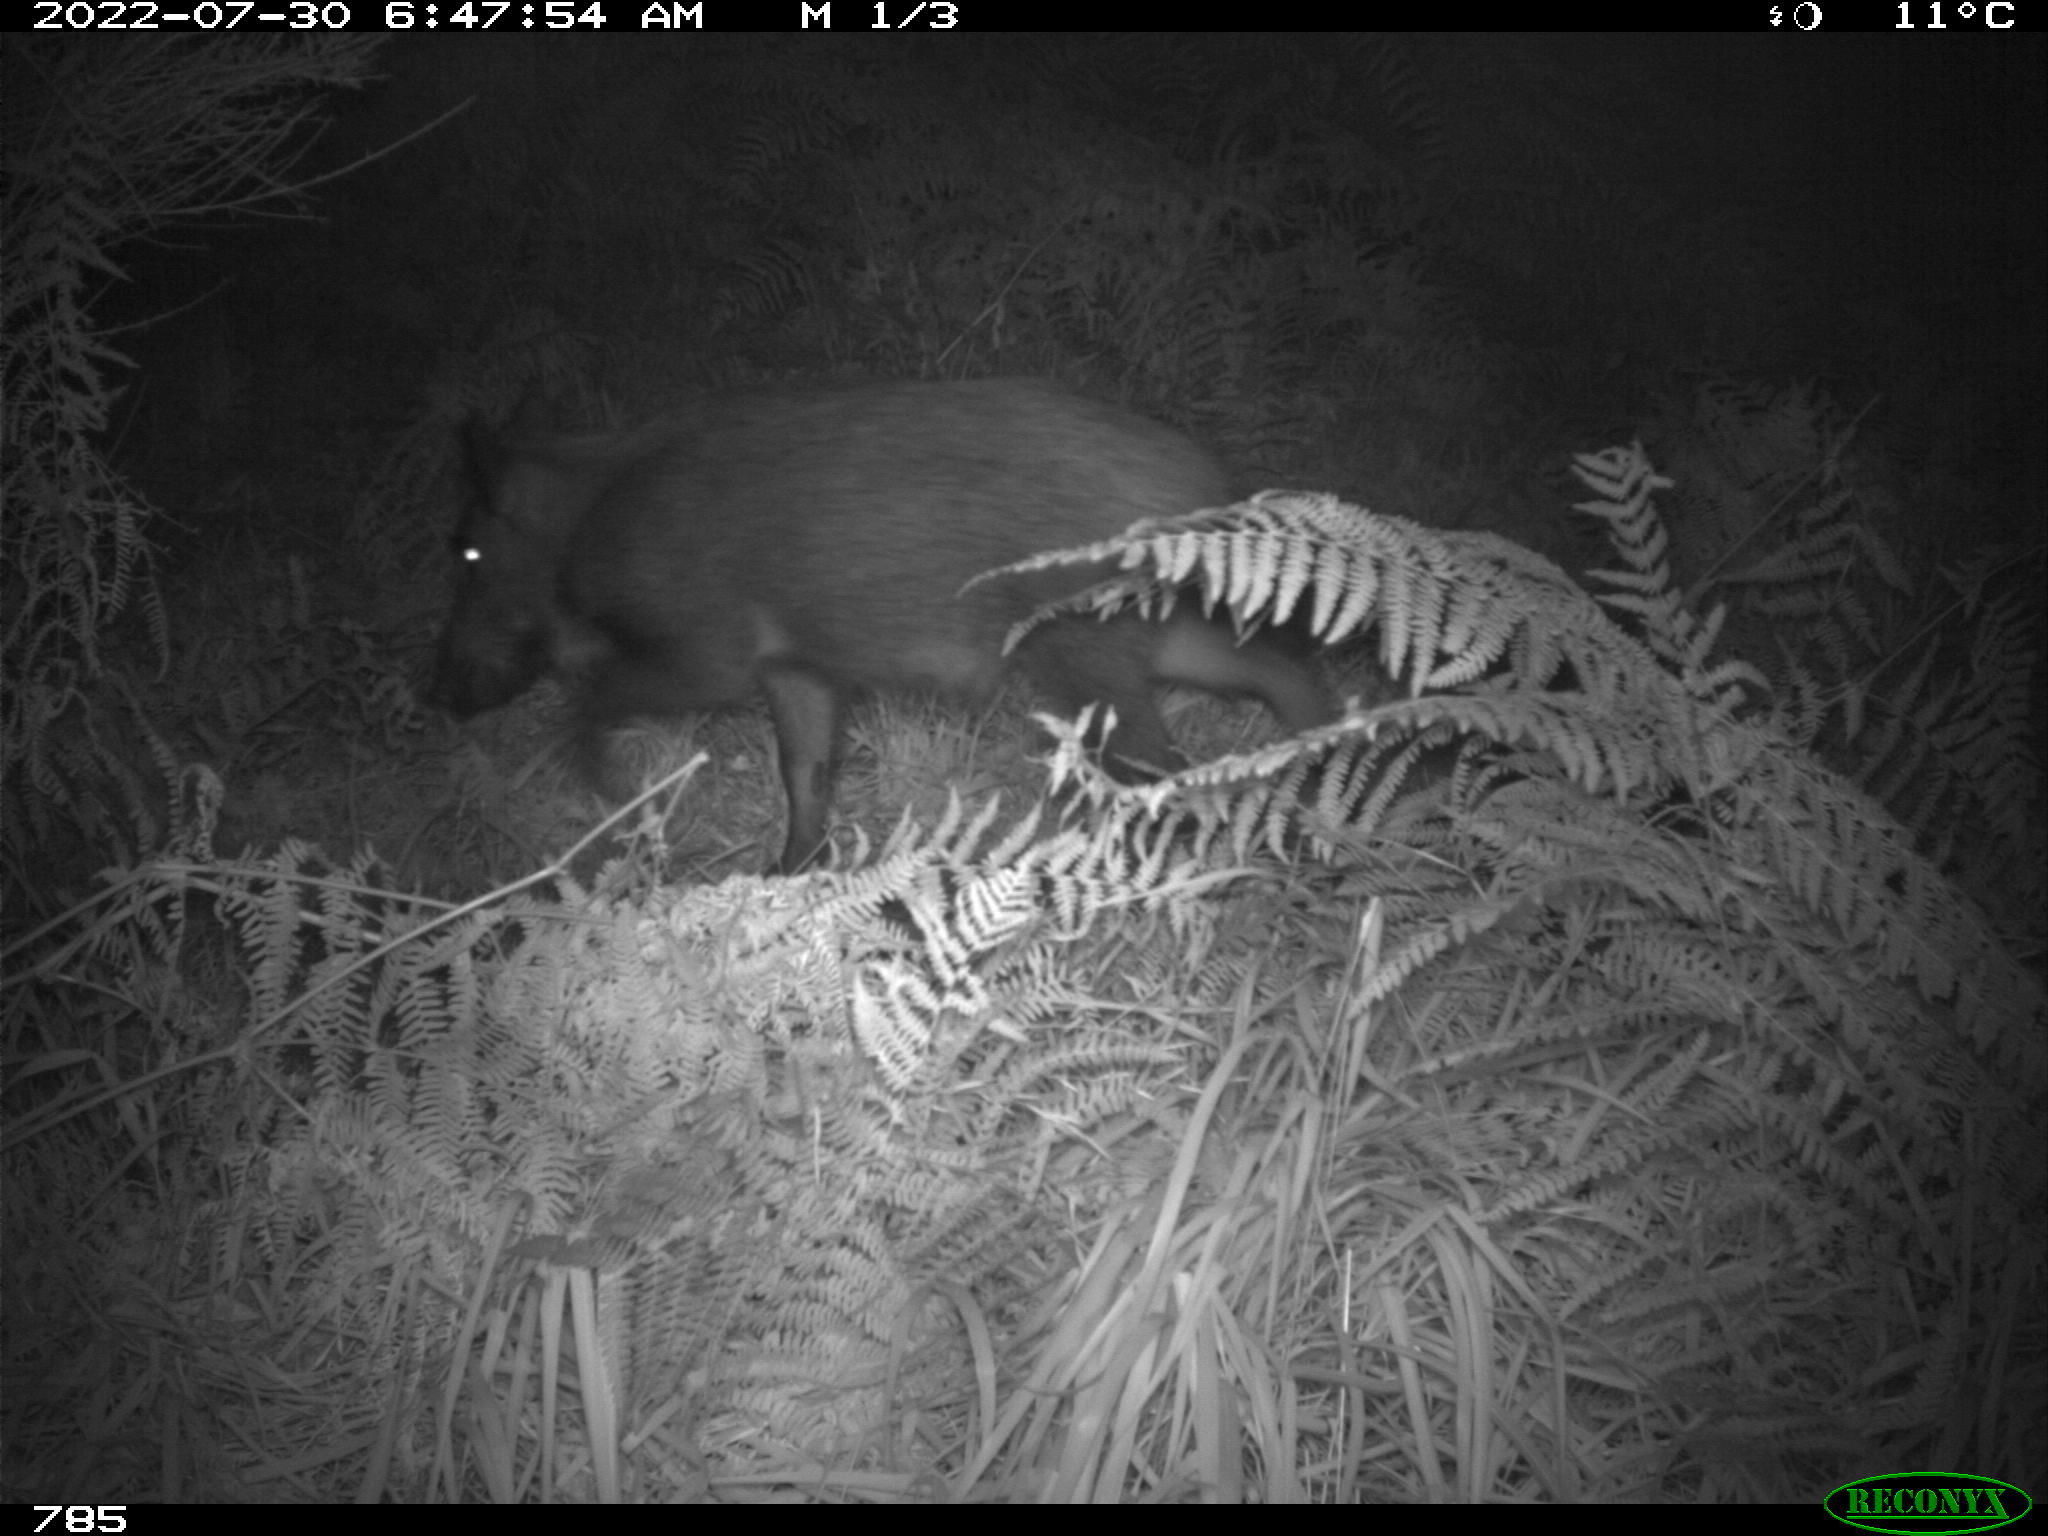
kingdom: Animalia
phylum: Chordata
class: Mammalia
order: Artiodactyla
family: Suidae
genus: Sus
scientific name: Sus scrofa
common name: Wild boar
